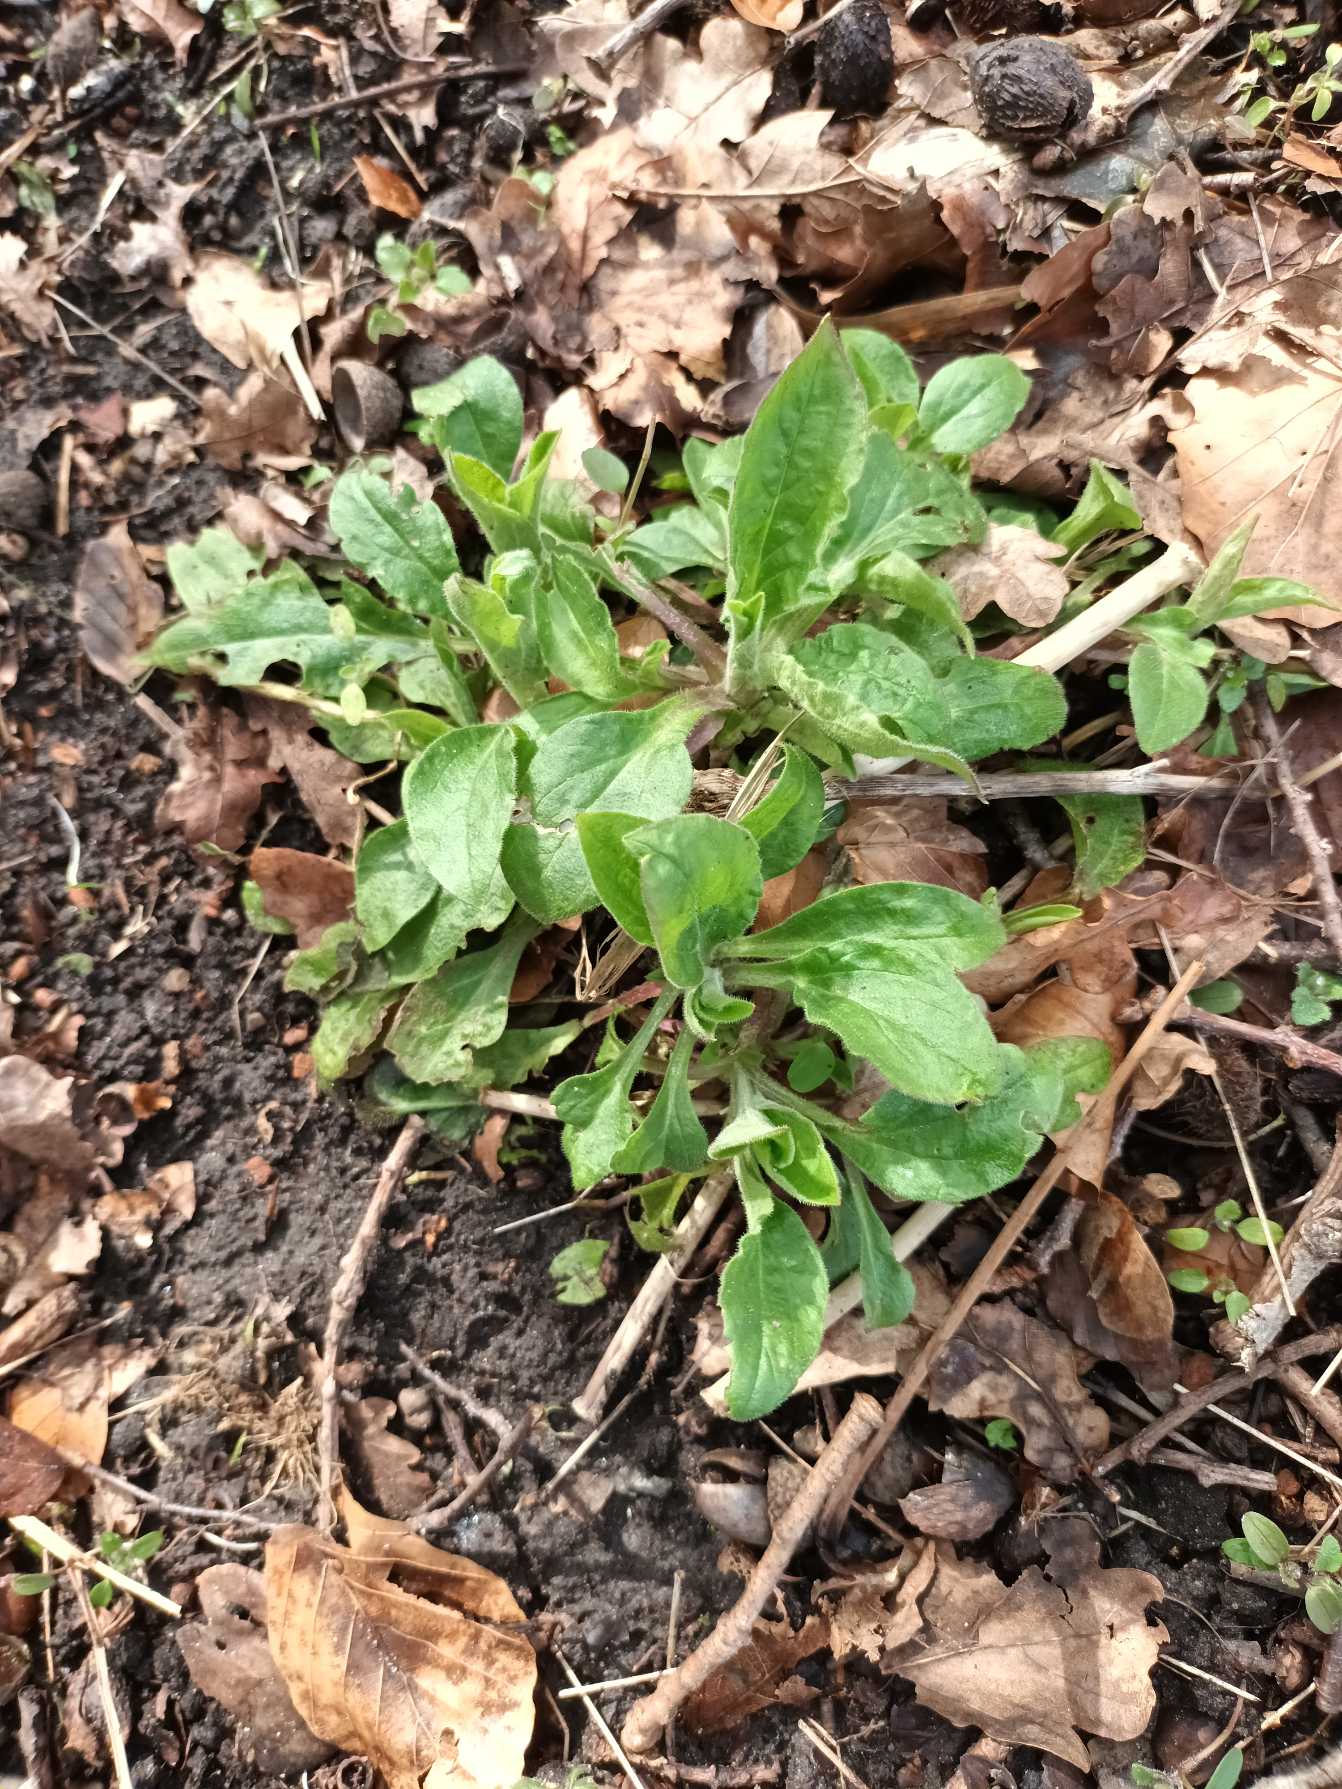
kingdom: Plantae
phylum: Tracheophyta
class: Magnoliopsida
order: Caryophyllales
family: Caryophyllaceae
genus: Silene
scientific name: Silene dioica
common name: Dagpragtstjerne
